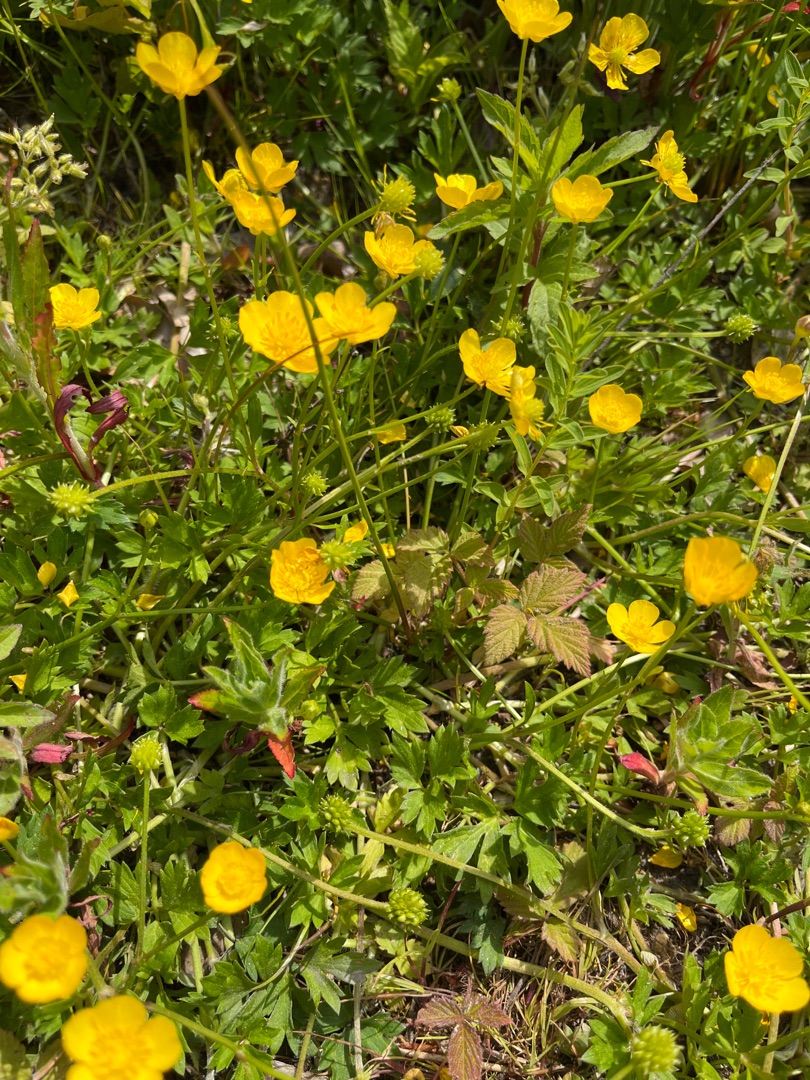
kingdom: Plantae
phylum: Tracheophyta
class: Magnoliopsida
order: Ranunculales
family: Ranunculaceae
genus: Ranunculus
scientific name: Ranunculus repens
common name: Lav ranunkel
